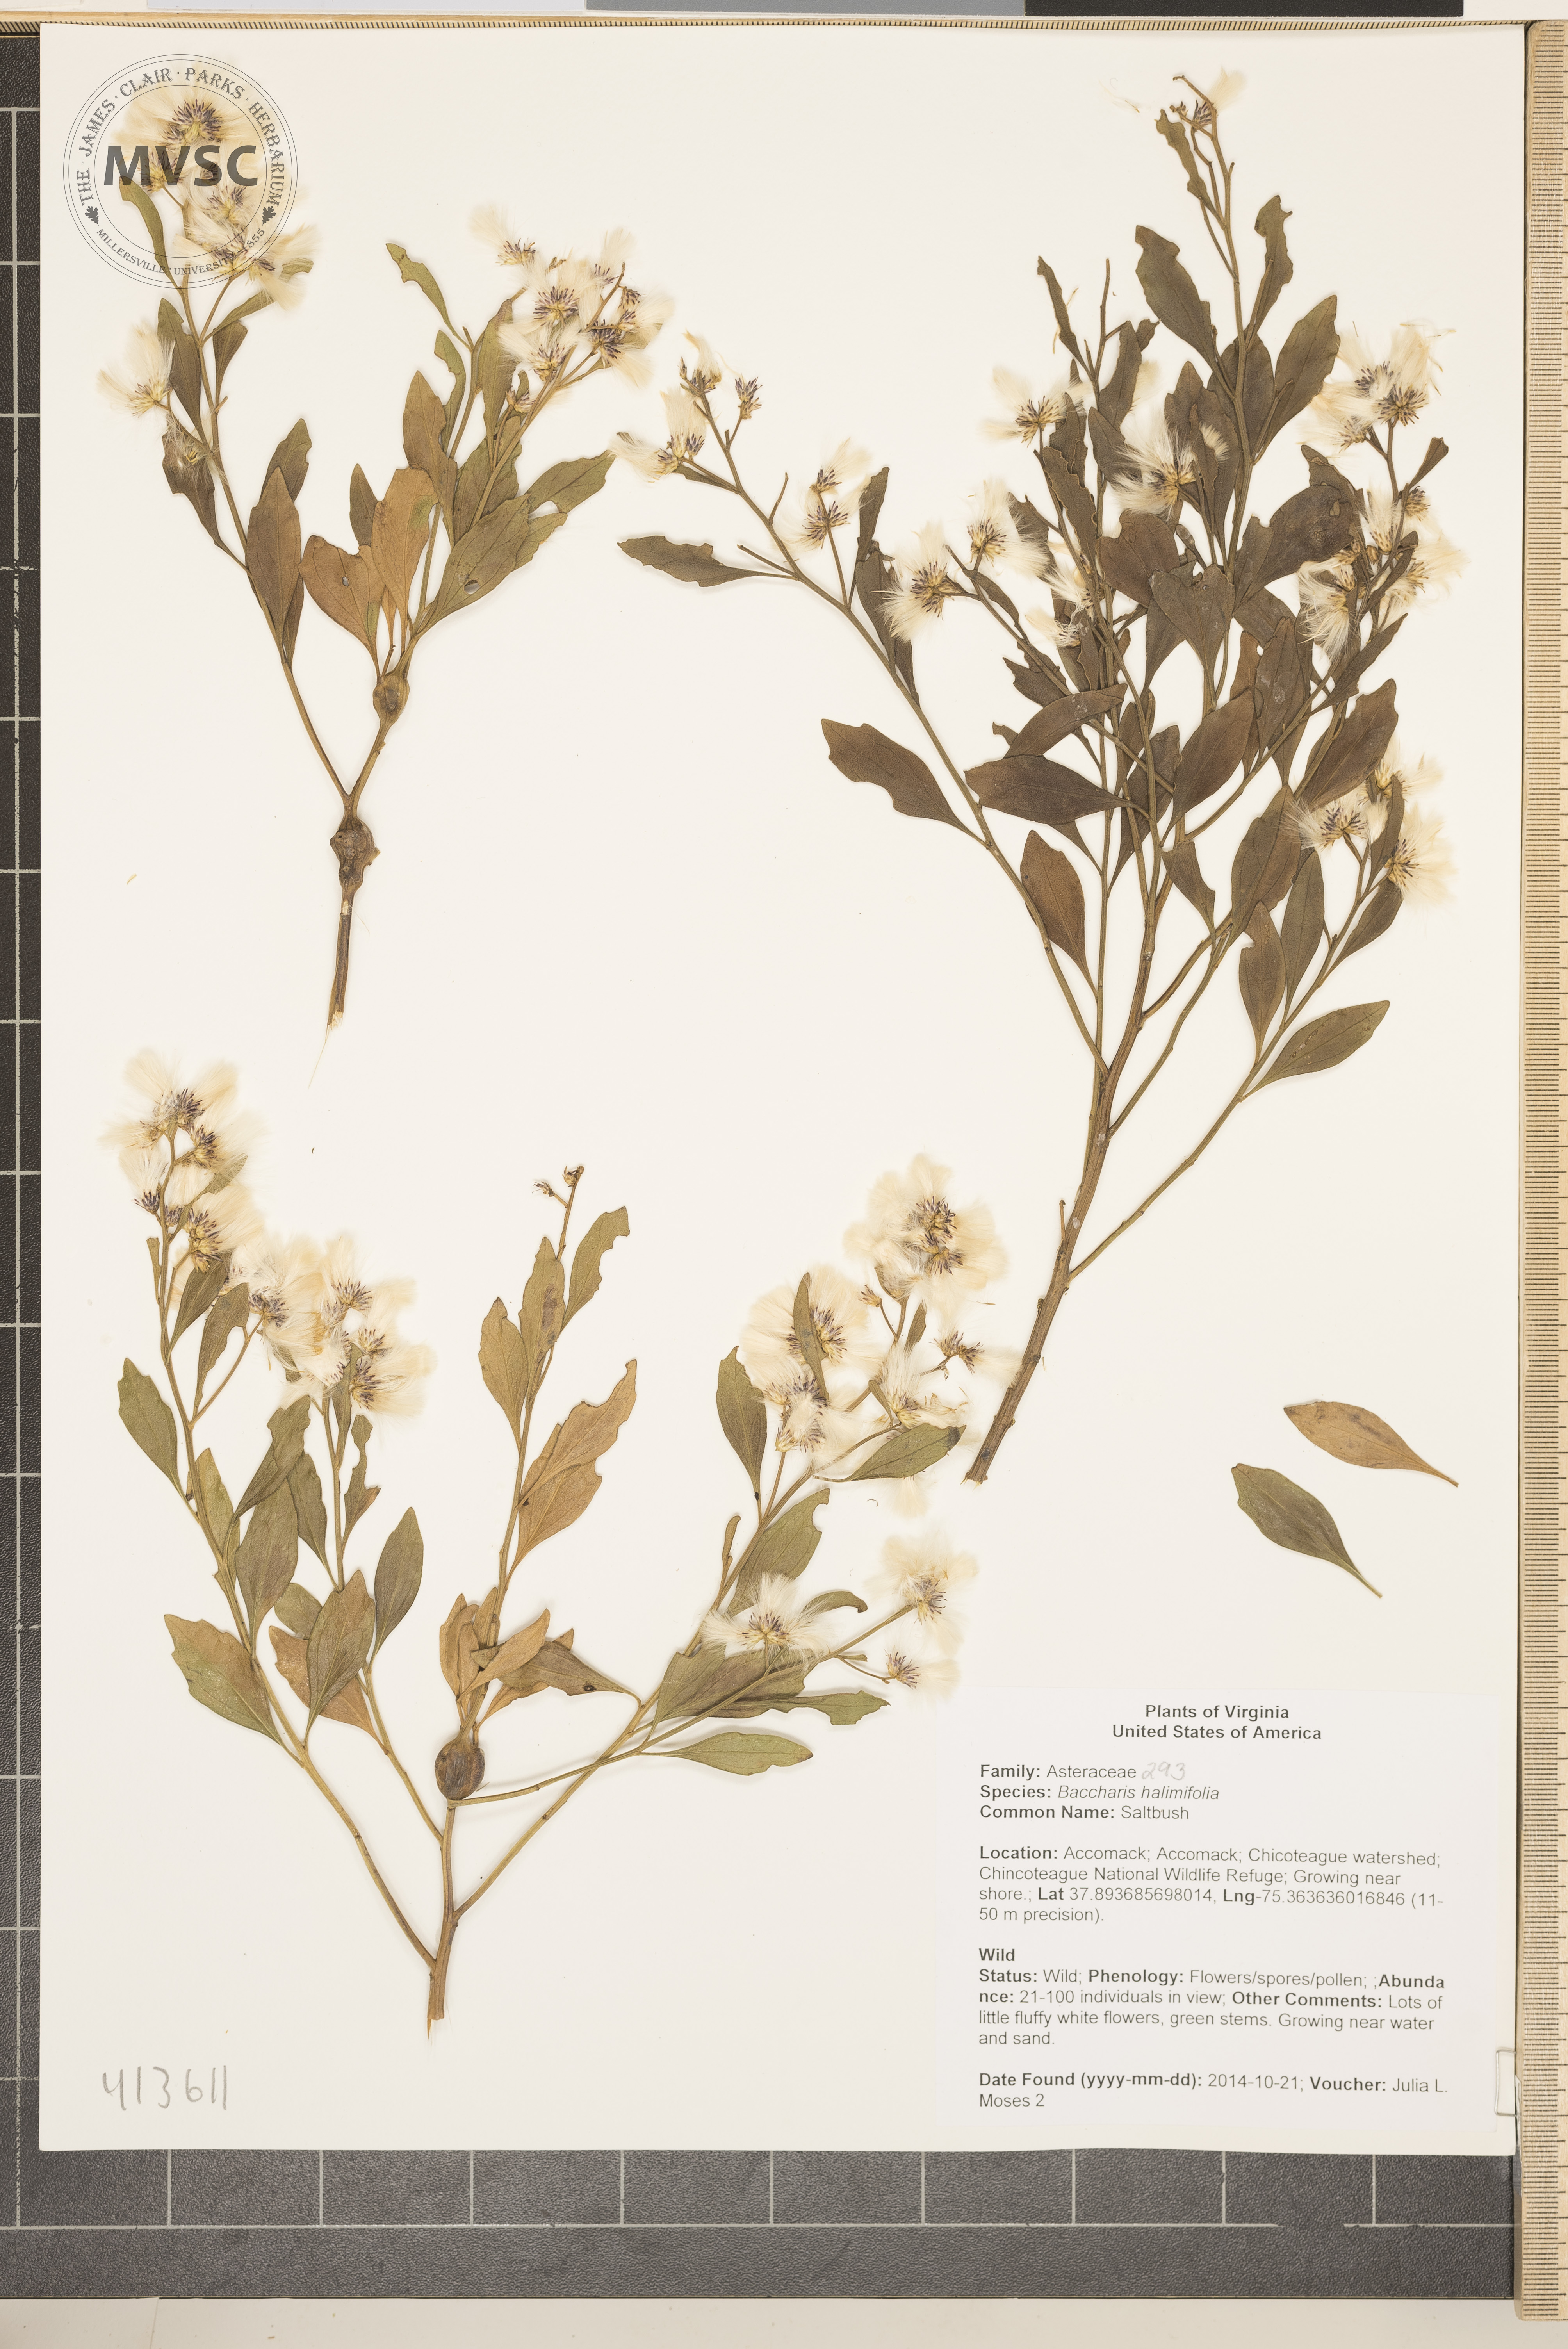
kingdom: Plantae
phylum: Tracheophyta
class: Magnoliopsida
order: Asterales
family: Asteraceae
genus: Baccharis
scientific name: Baccharis halimifolia
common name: Saltbush
